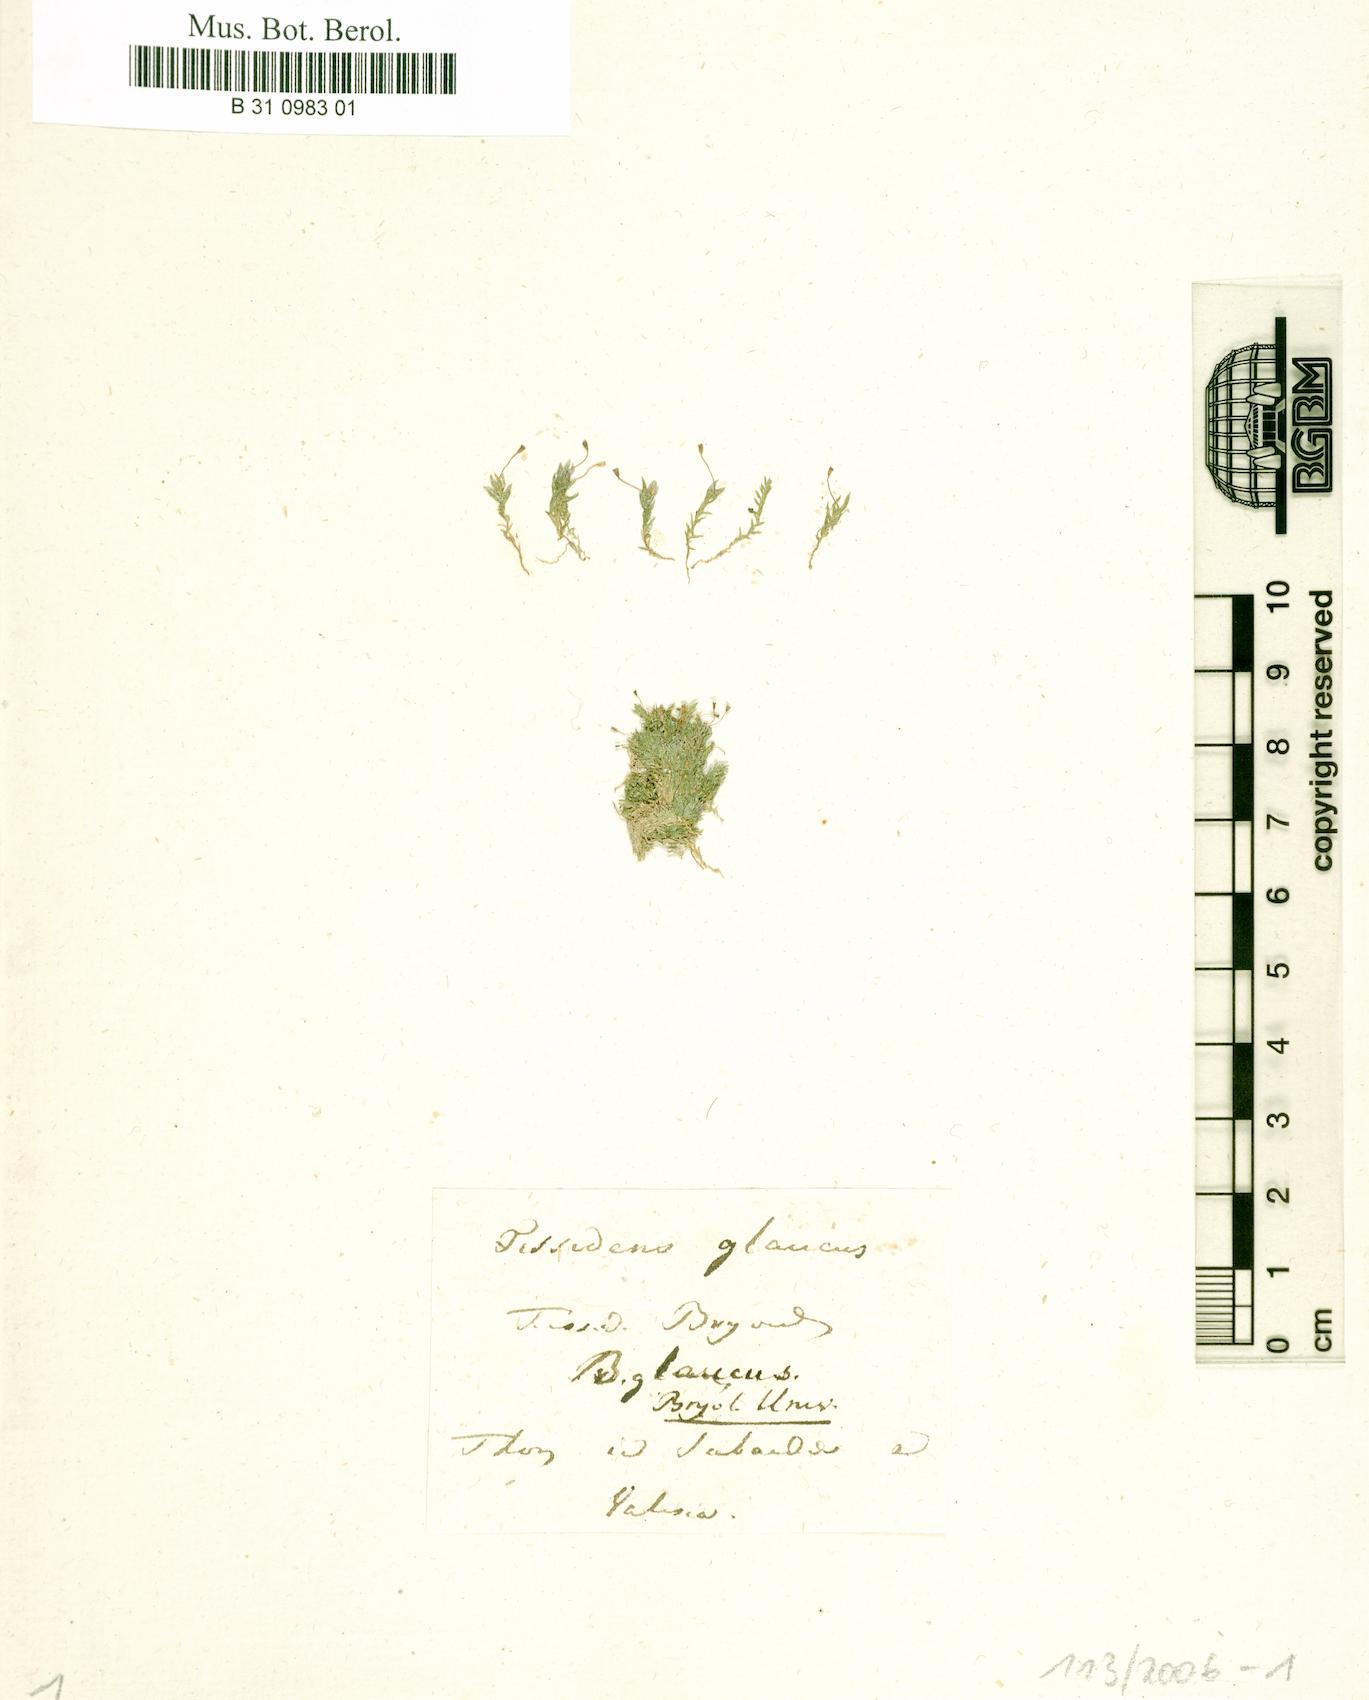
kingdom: Plantae
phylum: Bryophyta
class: Bryopsida
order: Dicranales
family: Fissidentaceae
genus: Fissidens
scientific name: Fissidens
